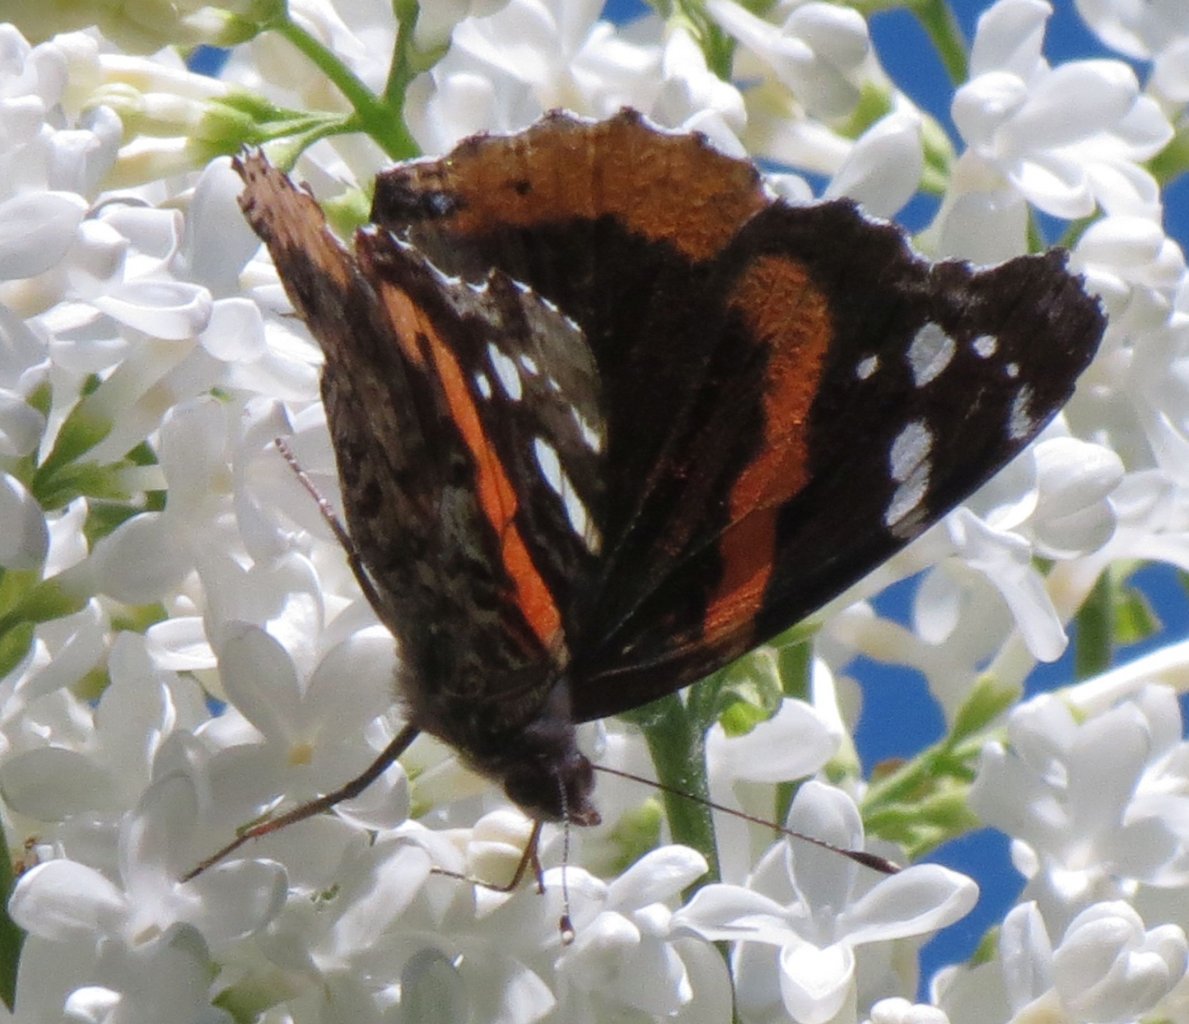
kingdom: Animalia
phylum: Arthropoda
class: Insecta
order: Lepidoptera
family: Nymphalidae
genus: Vanessa
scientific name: Vanessa atalanta
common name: Red Admiral
